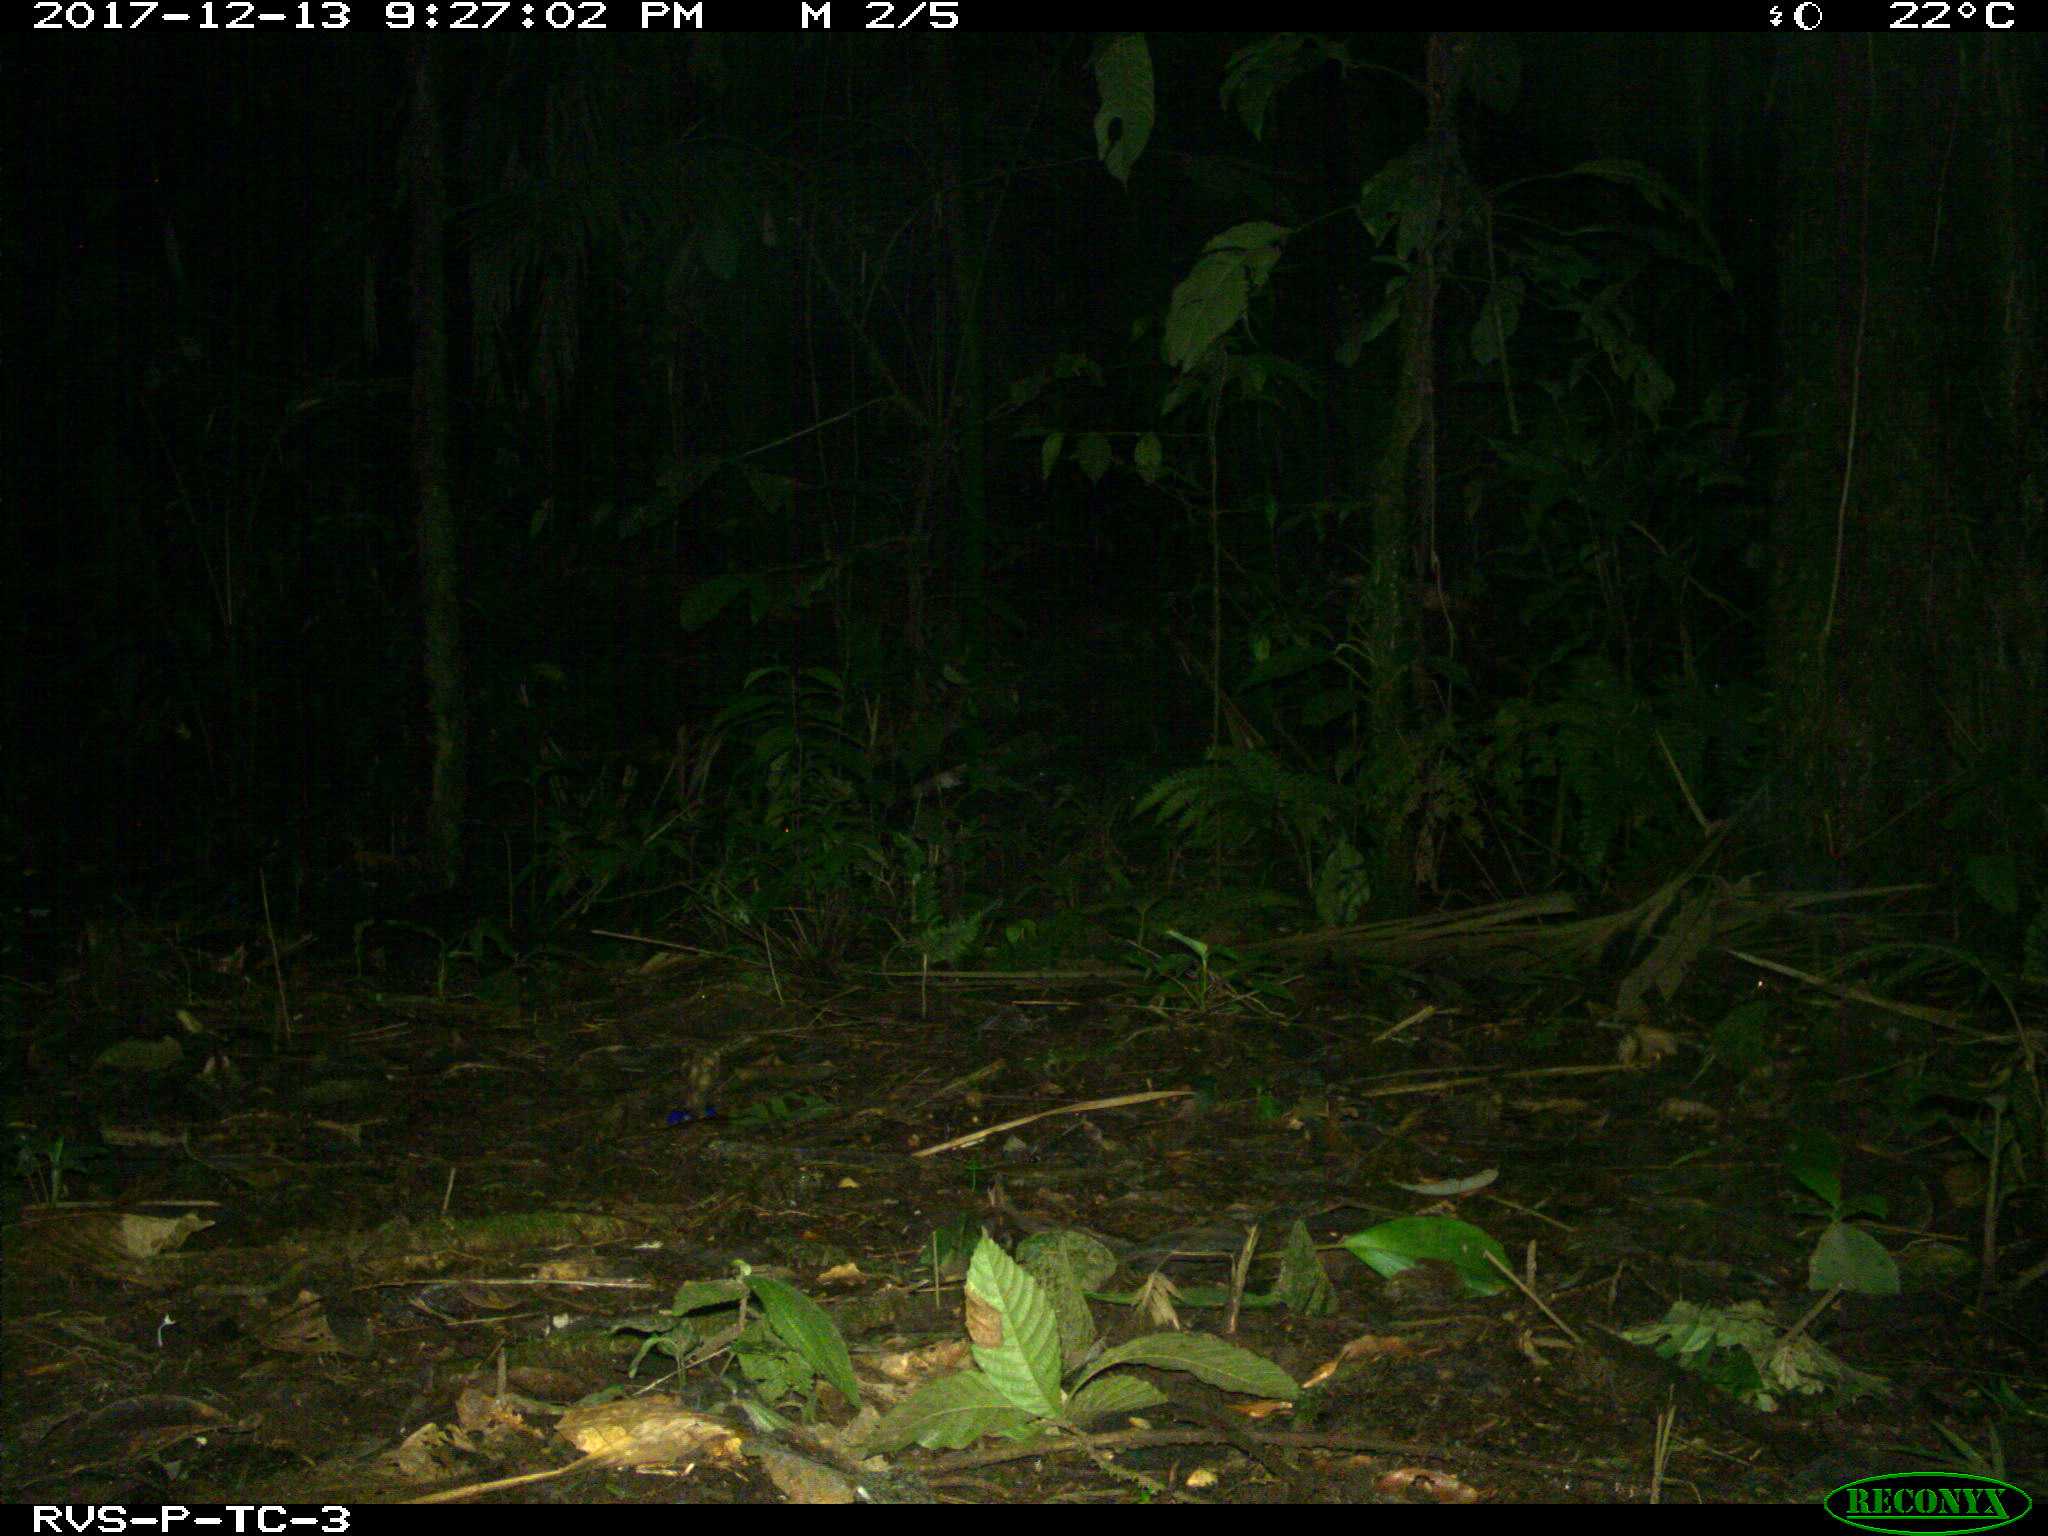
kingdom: Animalia
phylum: Chordata
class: Mammalia
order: Rodentia
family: Cuniculidae
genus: Cuniculus
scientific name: Cuniculus paca
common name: Lowland paca
